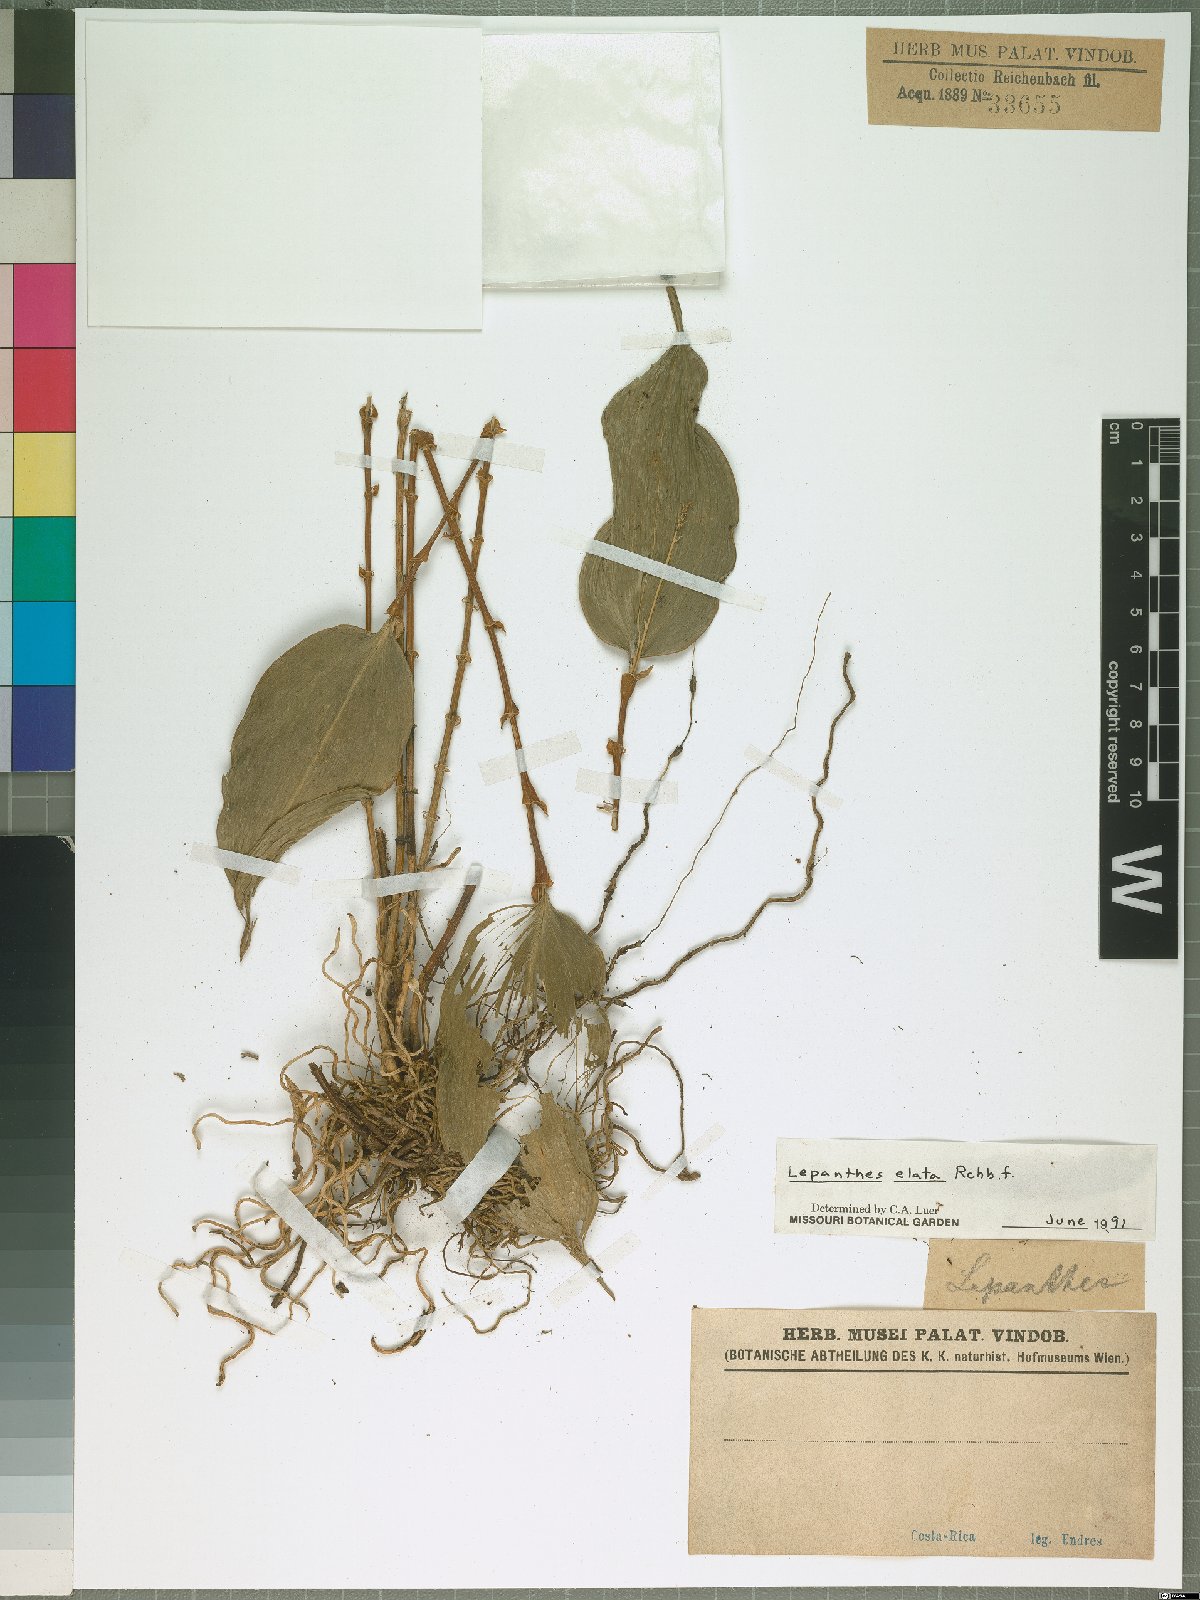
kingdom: Plantae
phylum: Tracheophyta
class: Liliopsida
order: Asparagales
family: Orchidaceae
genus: Lepanthes
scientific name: Lepanthes elata
